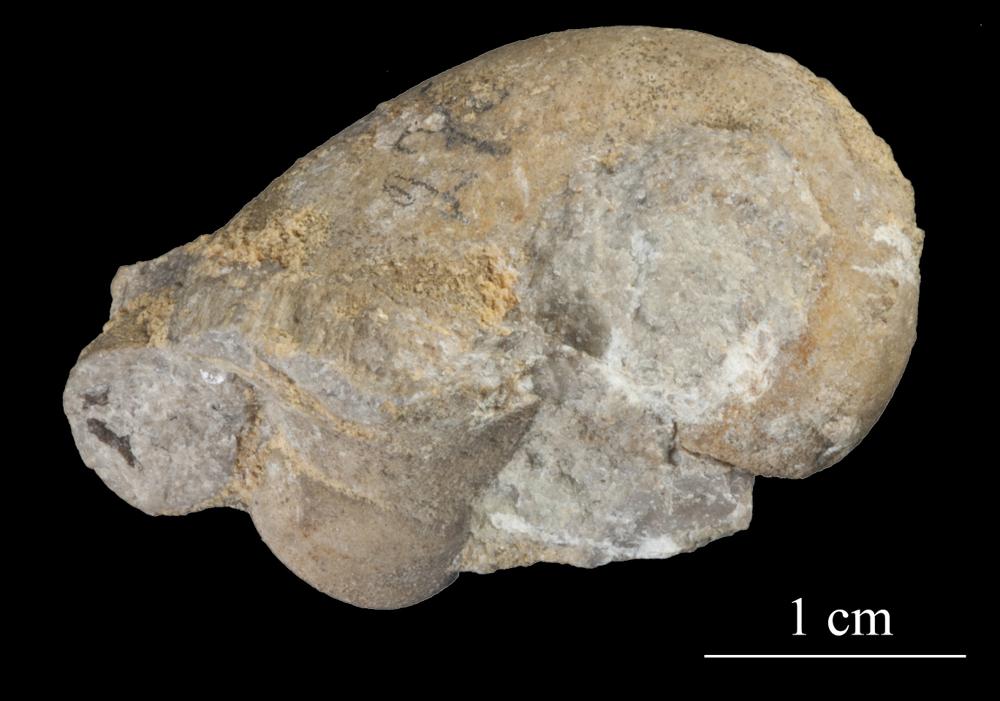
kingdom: Animalia
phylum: Mollusca
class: Gastropoda
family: Bellerophontidae
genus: Bellerophon
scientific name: Bellerophon compressus
